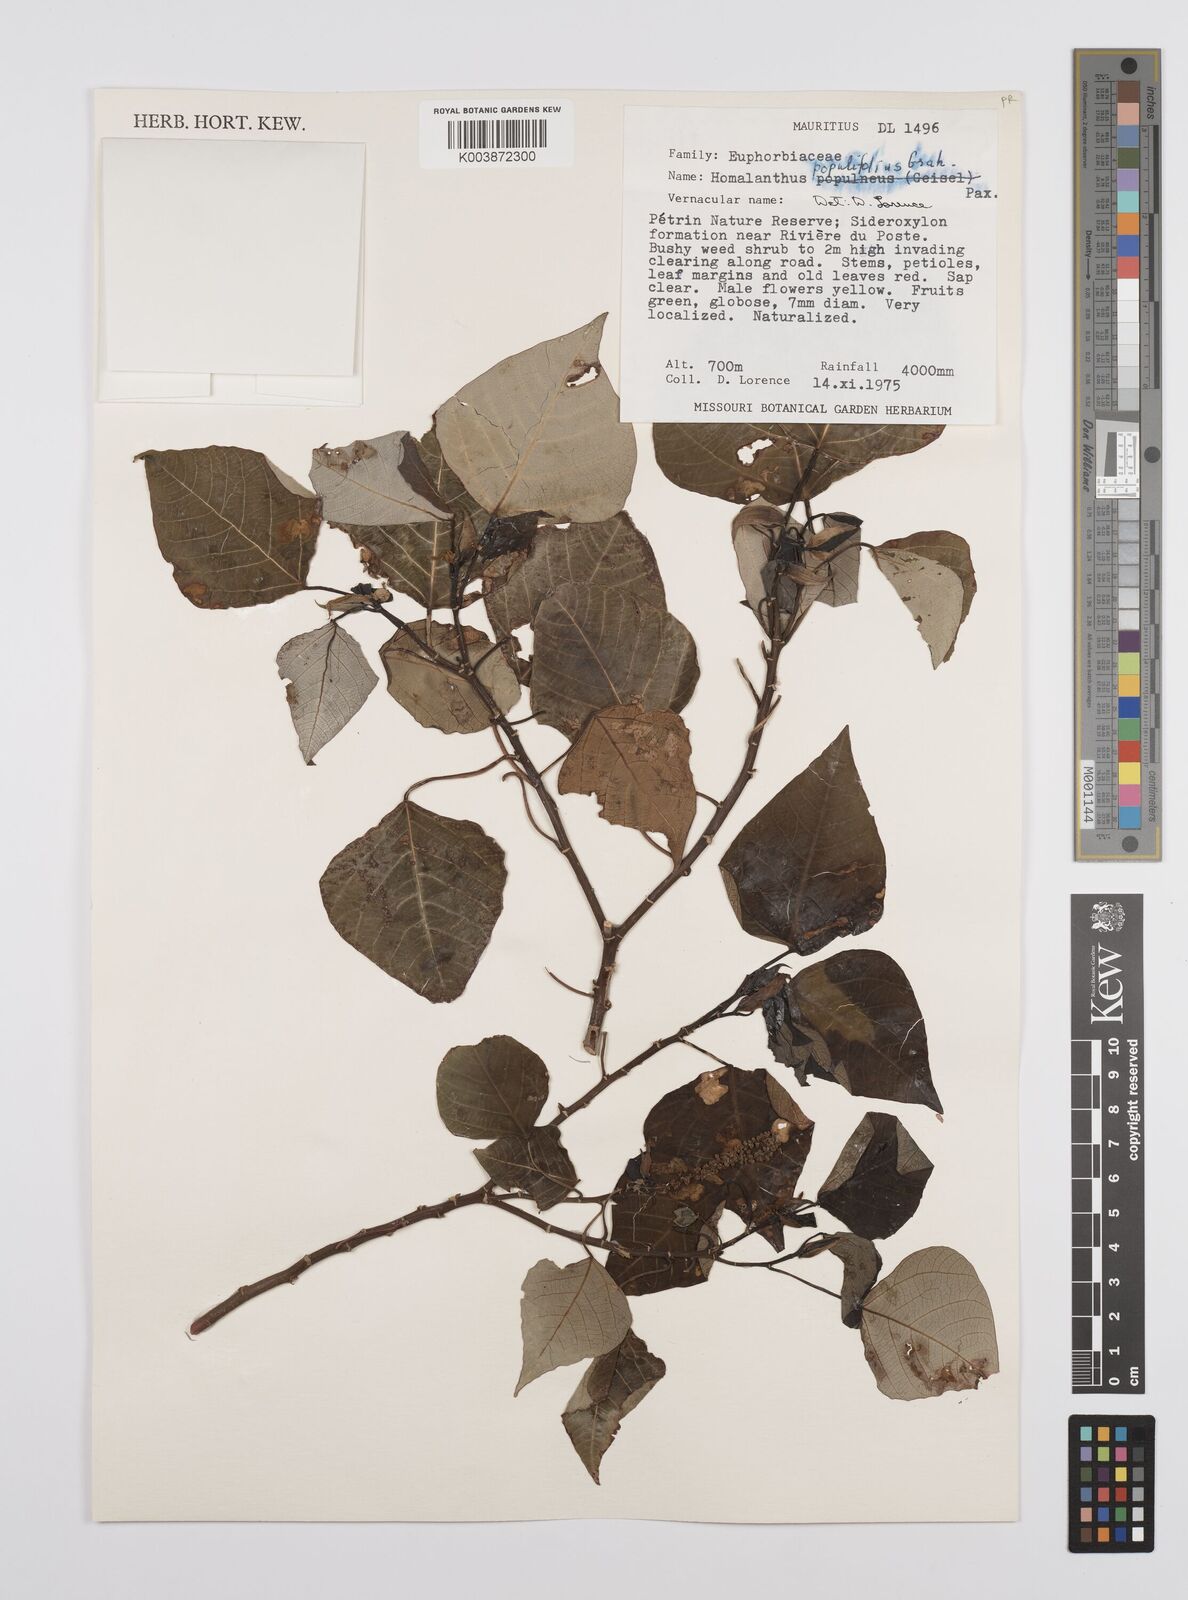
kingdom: Plantae
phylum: Tracheophyta
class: Magnoliopsida
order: Malpighiales
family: Euphorbiaceae
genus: Homalanthus
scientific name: Homalanthus populifolius
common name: Queensland poplar
